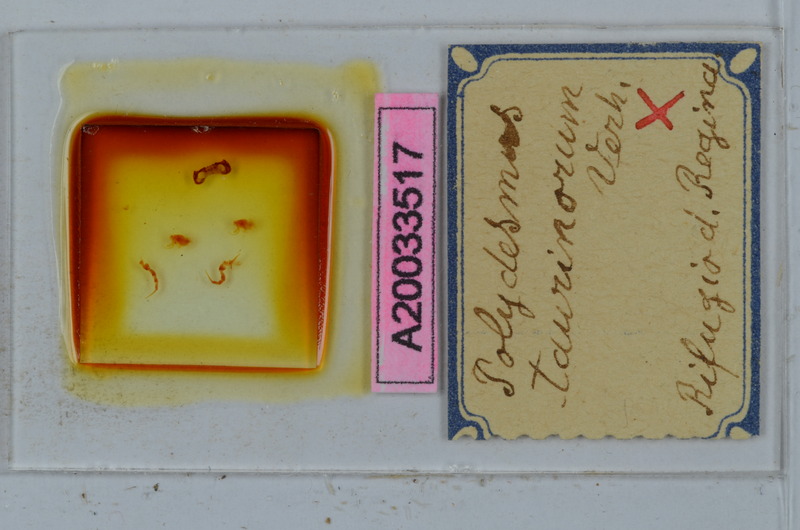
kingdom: Animalia
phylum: Arthropoda
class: Diplopoda
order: Polydesmida
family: Polydesmidae
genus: Propolydesmus
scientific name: Propolydesmus testaceus
